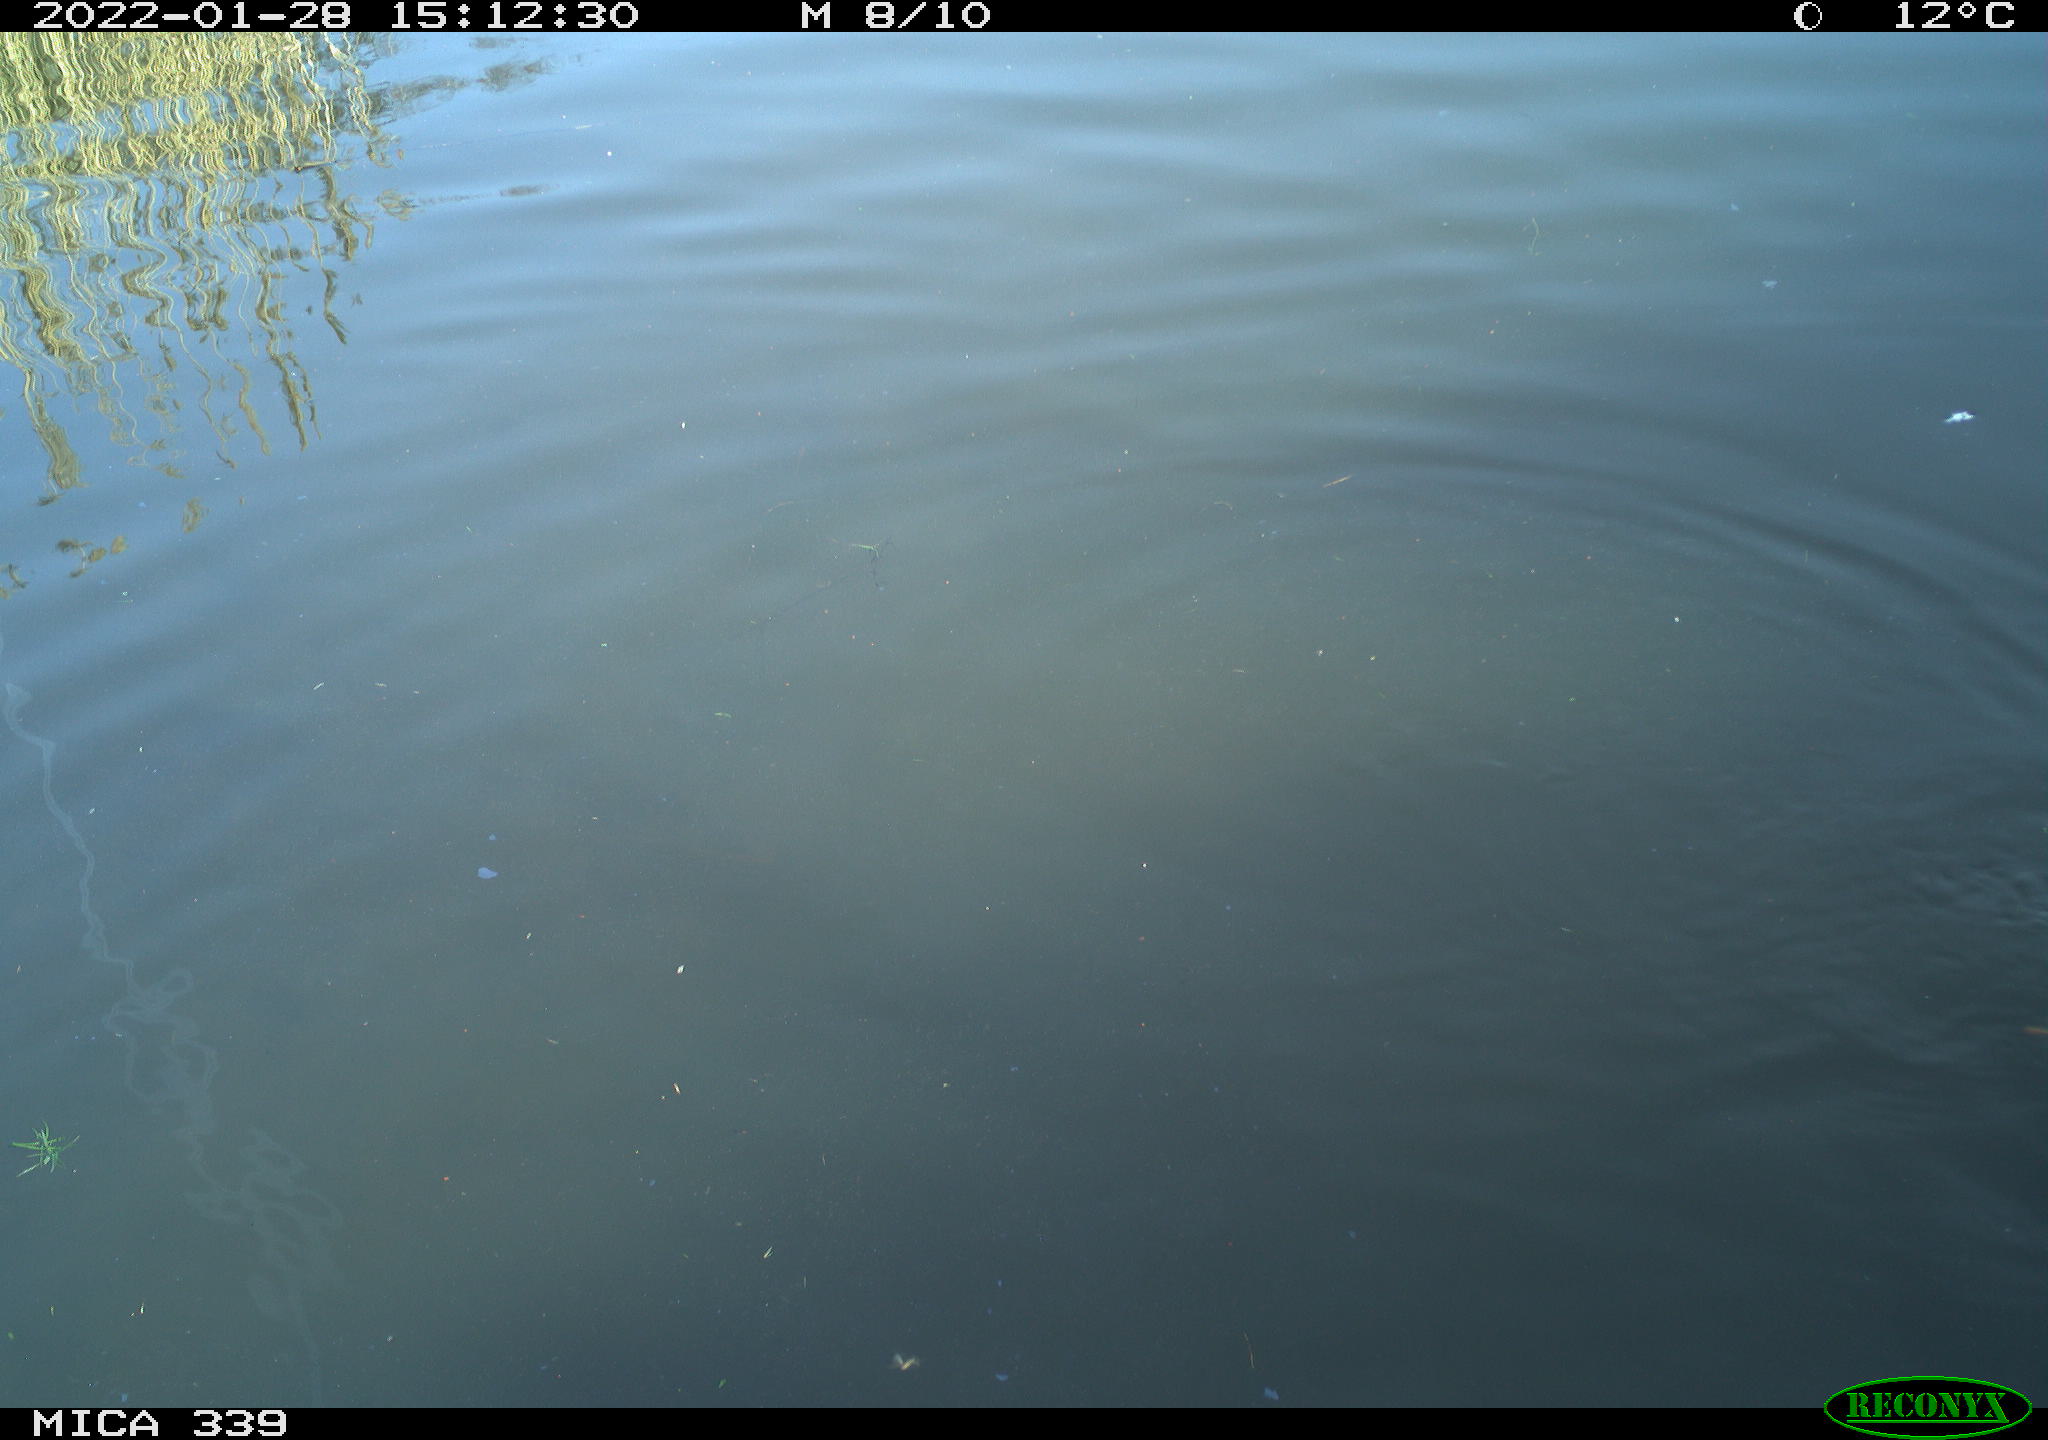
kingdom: Animalia
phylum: Chordata
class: Aves
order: Anseriformes
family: Anatidae
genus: Anas
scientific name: Anas platyrhynchos
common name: Mallard
